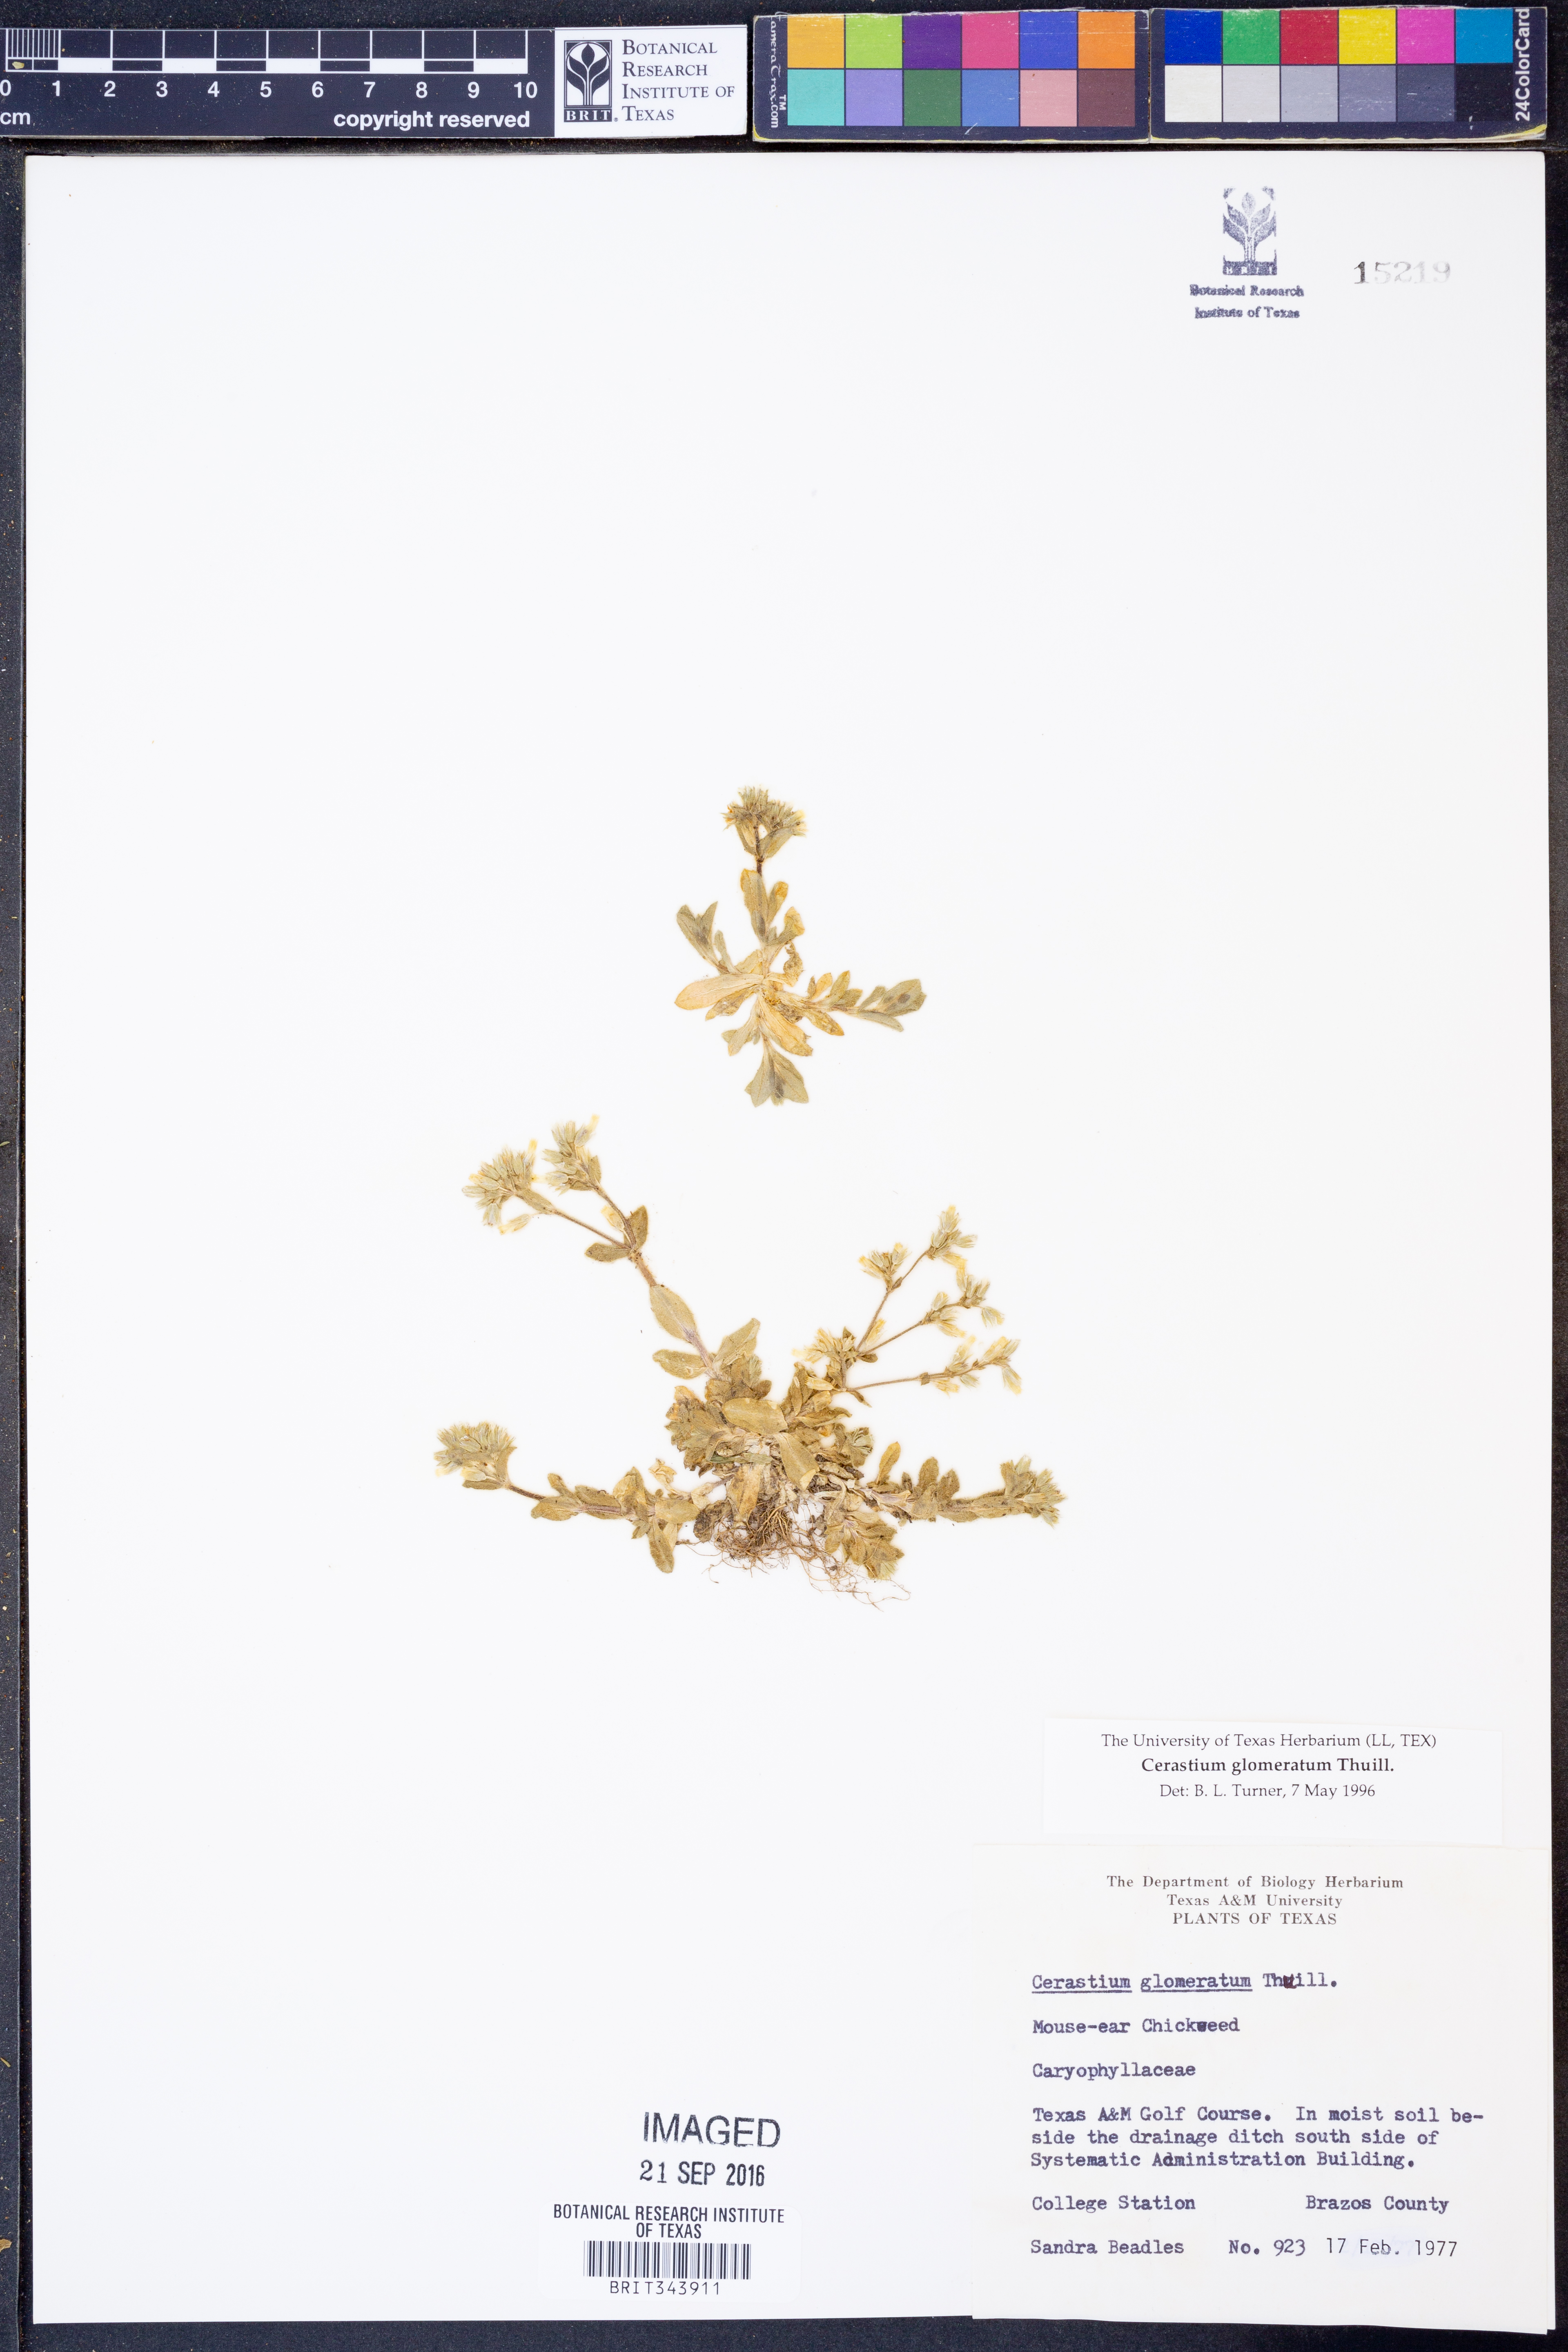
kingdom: Plantae
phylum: Tracheophyta
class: Magnoliopsida
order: Caryophyllales
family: Caryophyllaceae
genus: Cerastium
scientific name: Cerastium glomeratum
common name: Sticky chickweed
